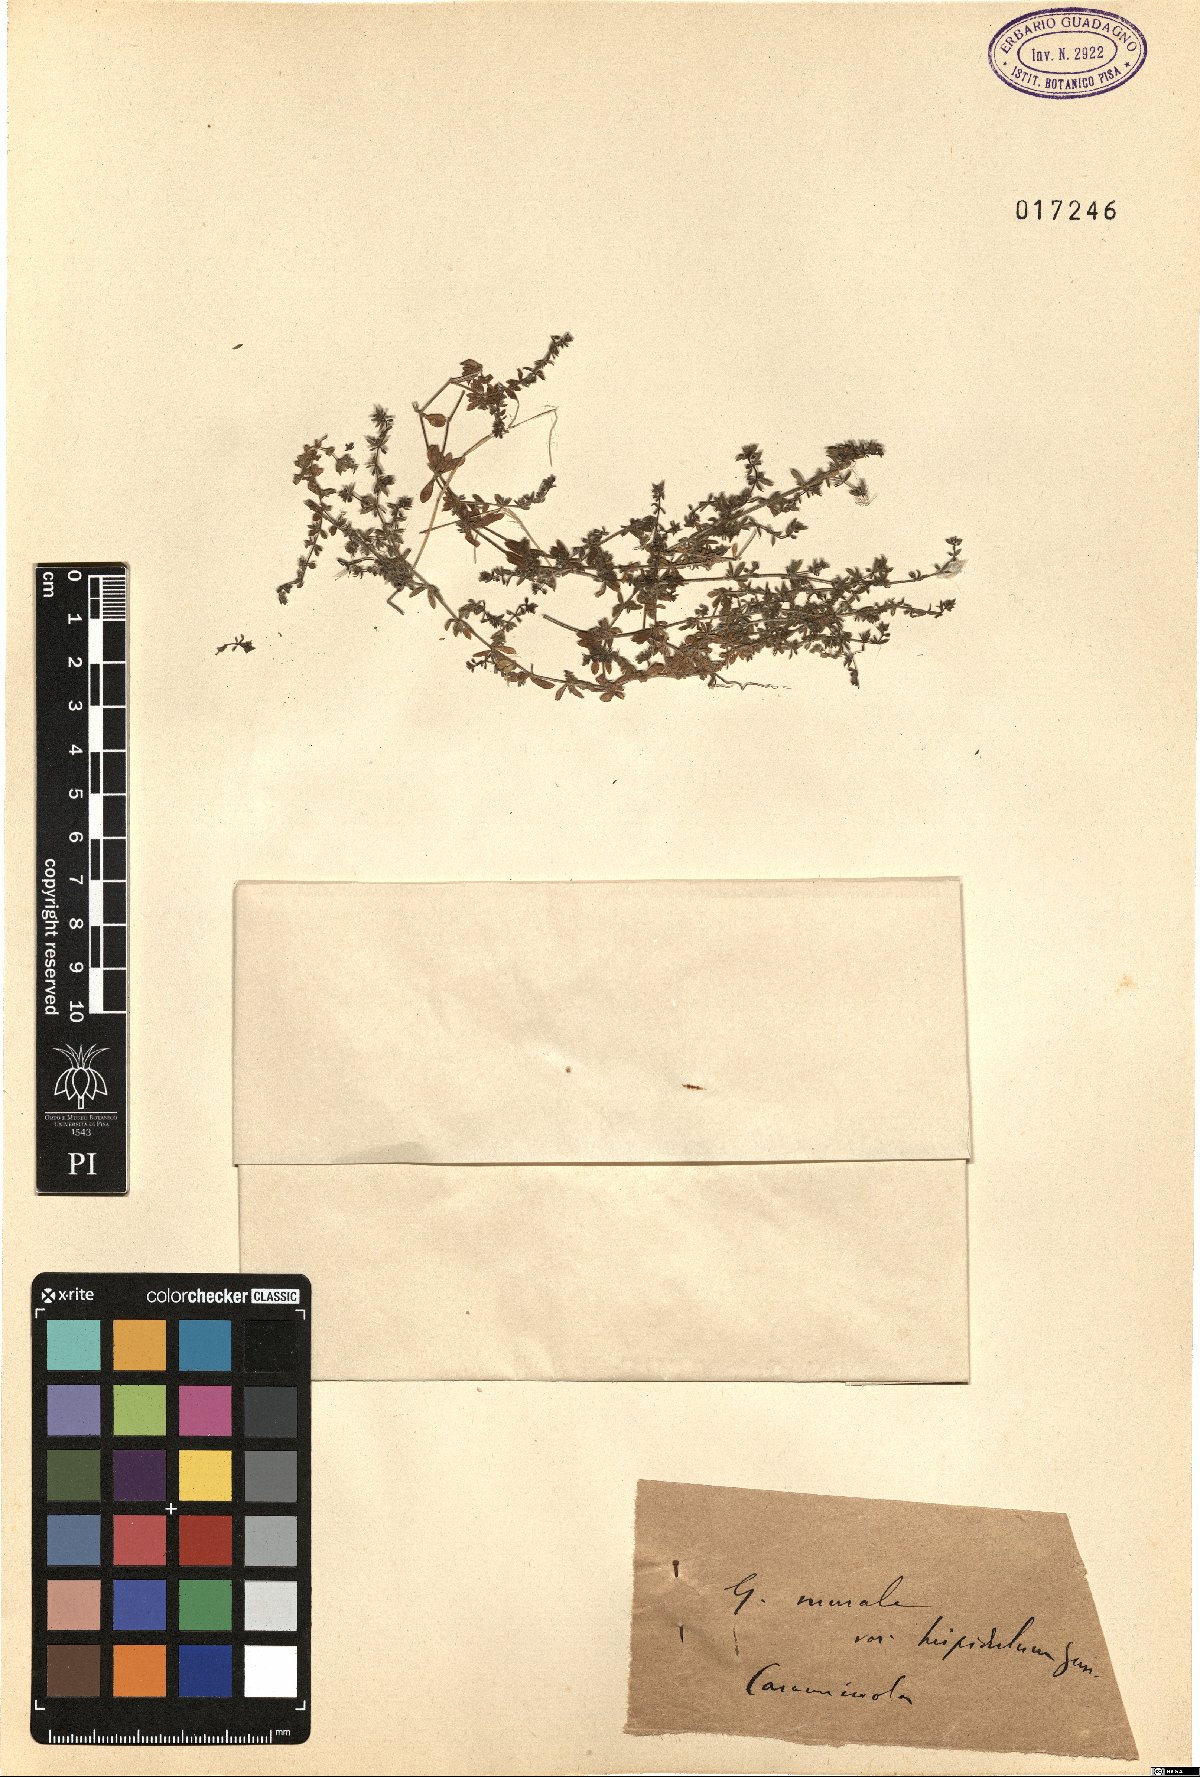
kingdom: Plantae
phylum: Tracheophyta
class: Magnoliopsida
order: Gentianales
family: Rubiaceae
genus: Galium
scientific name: Galium murale
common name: Yellow wall bedstraw
